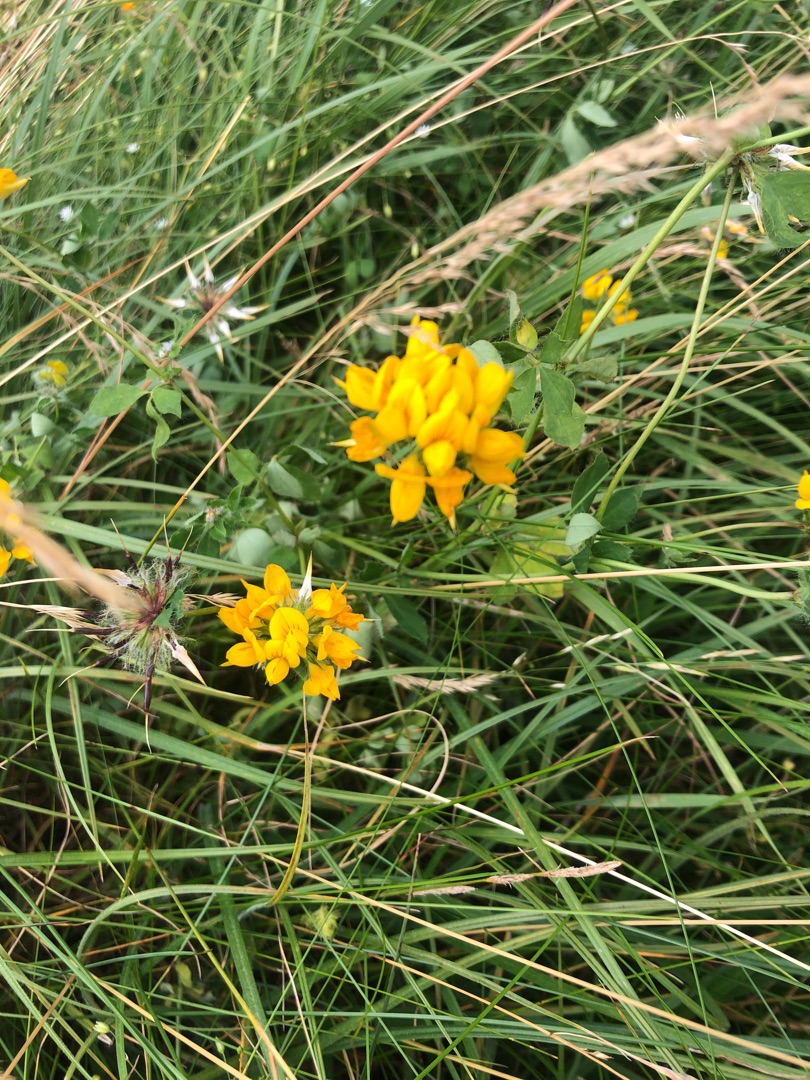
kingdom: Plantae
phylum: Tracheophyta
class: Magnoliopsida
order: Fabales
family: Fabaceae
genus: Lotus
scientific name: Lotus corniculatus
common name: Almindelig kællingetand
